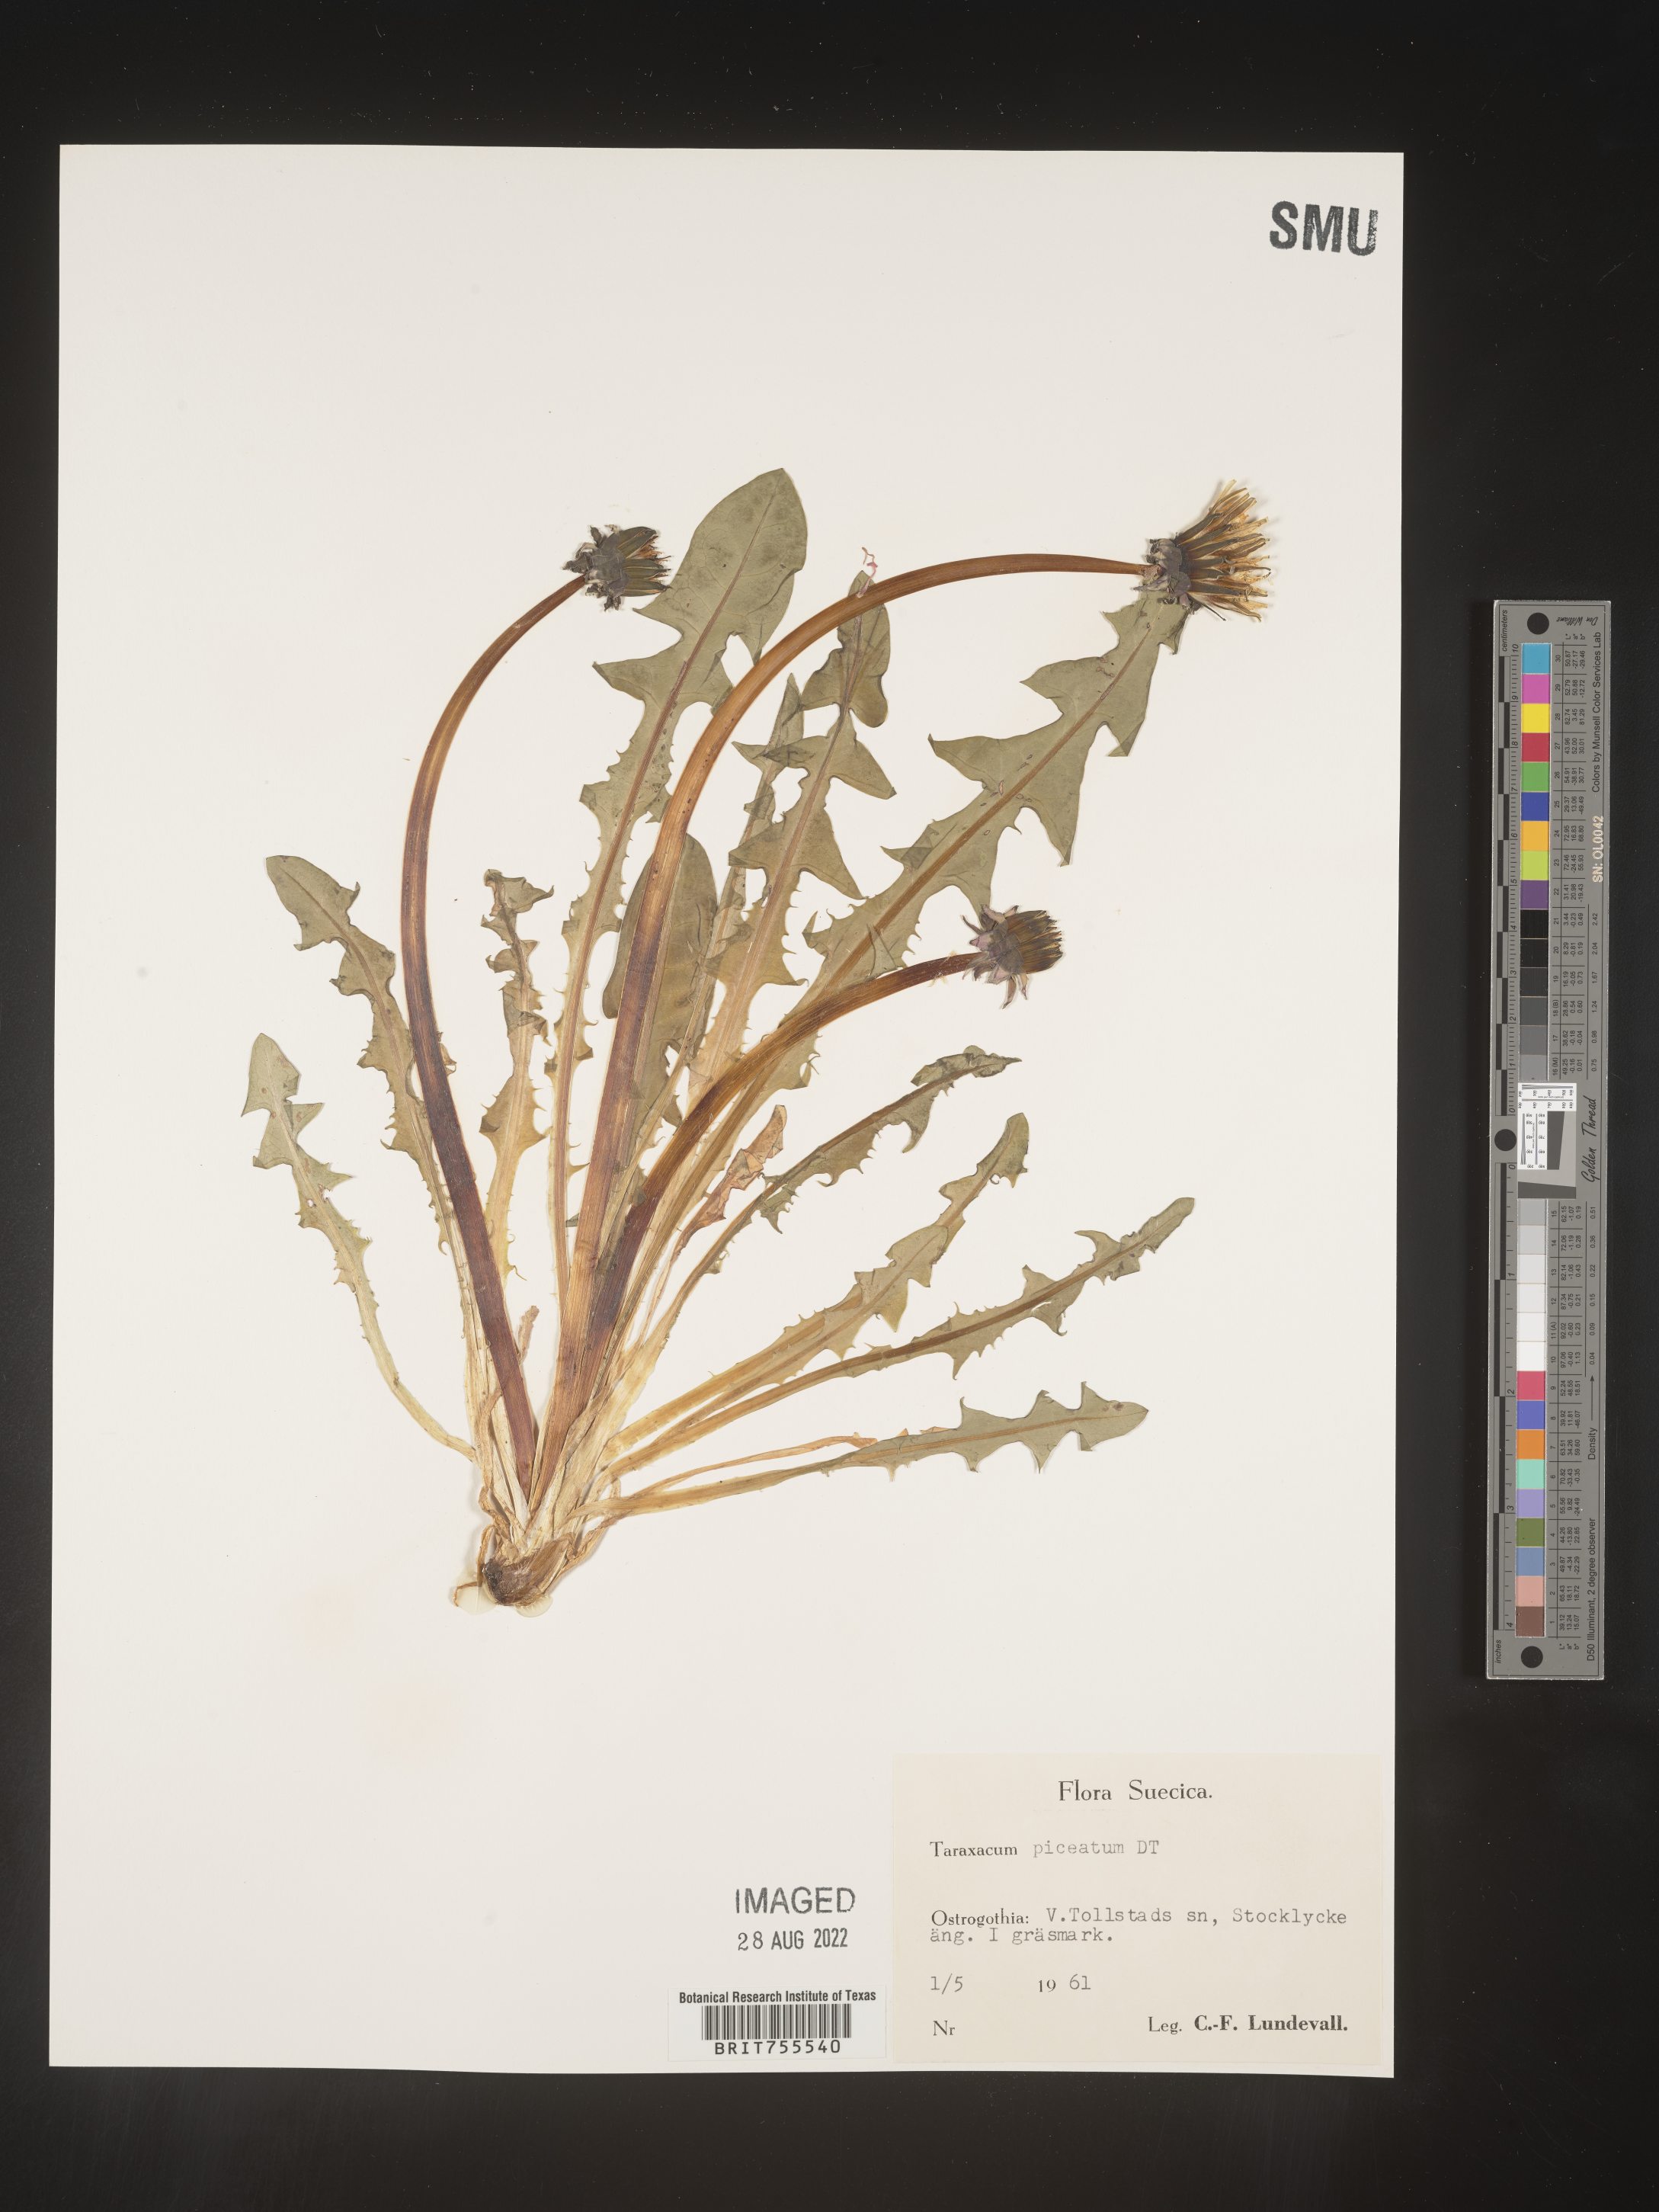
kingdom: Plantae
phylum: Tracheophyta
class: Magnoliopsida
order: Asterales
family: Asteraceae
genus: Taraxacum
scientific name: Taraxacum
